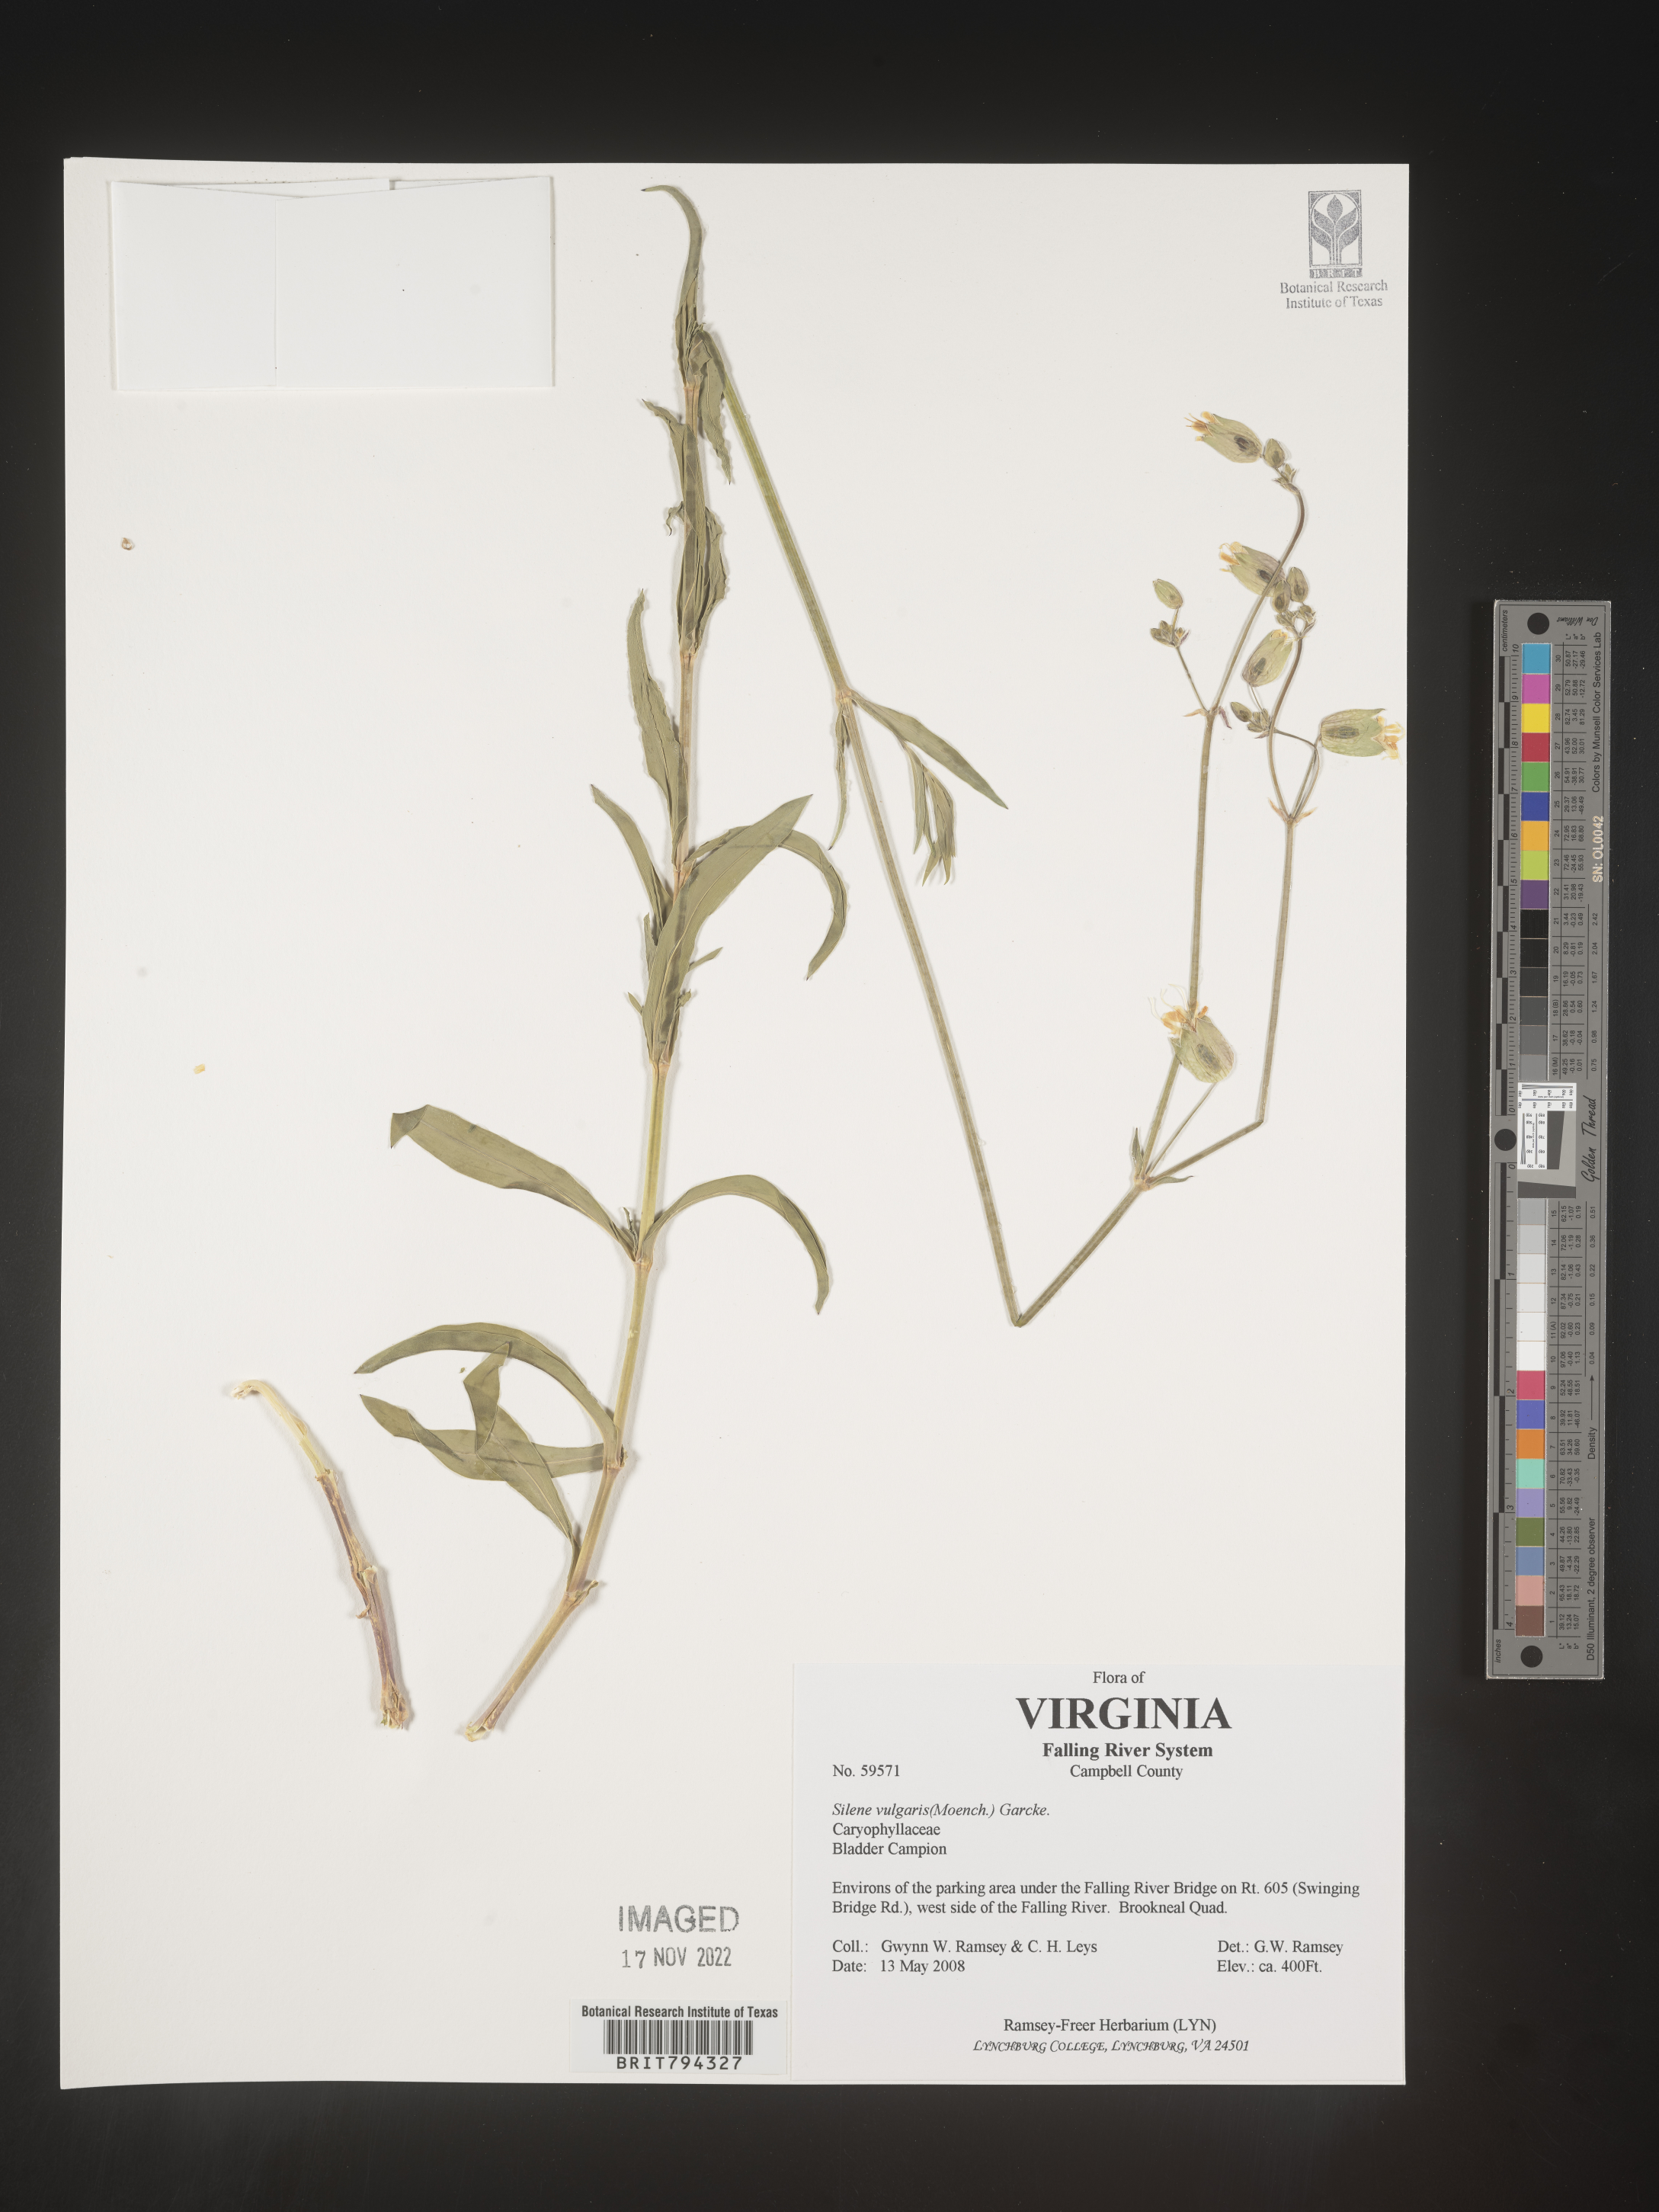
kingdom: Plantae
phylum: Tracheophyta
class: Magnoliopsida
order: Caryophyllales
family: Caryophyllaceae
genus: Silene
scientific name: Silene vulgaris
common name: Bladder campion
